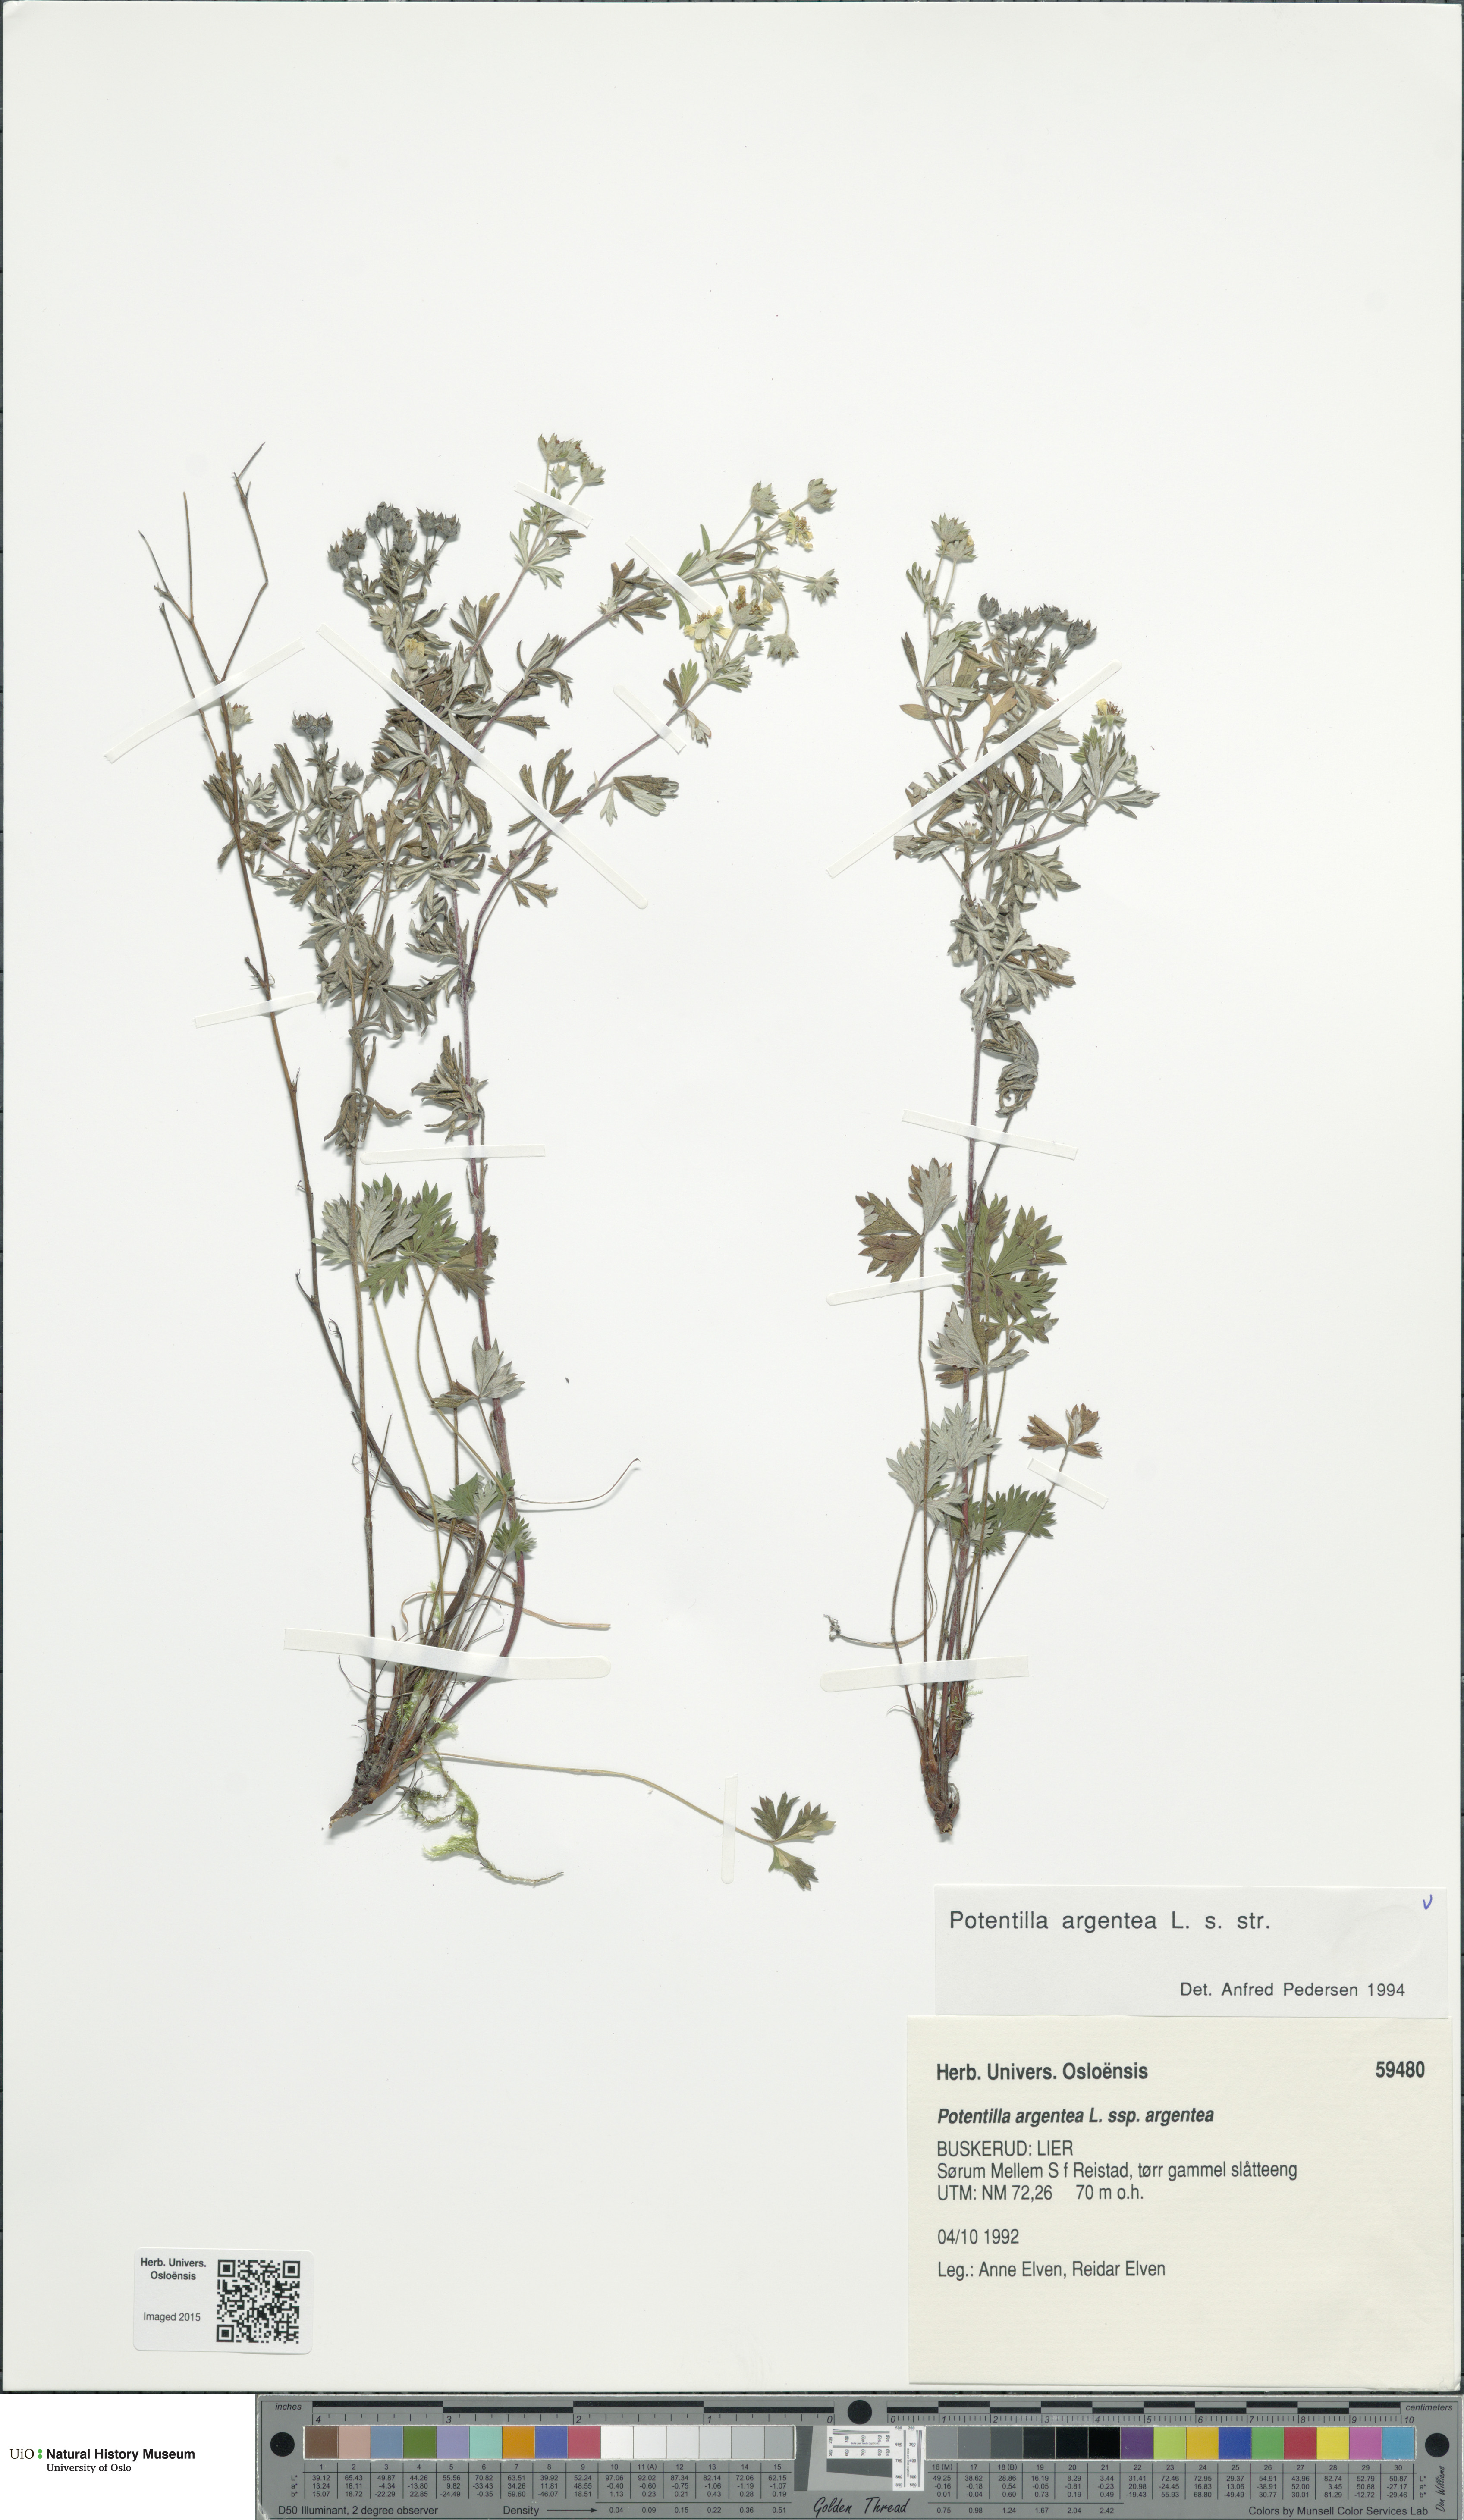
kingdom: Plantae
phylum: Tracheophyta
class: Magnoliopsida
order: Rosales
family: Rosaceae
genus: Potentilla
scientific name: Potentilla argentea
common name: Hoary cinquefoil
